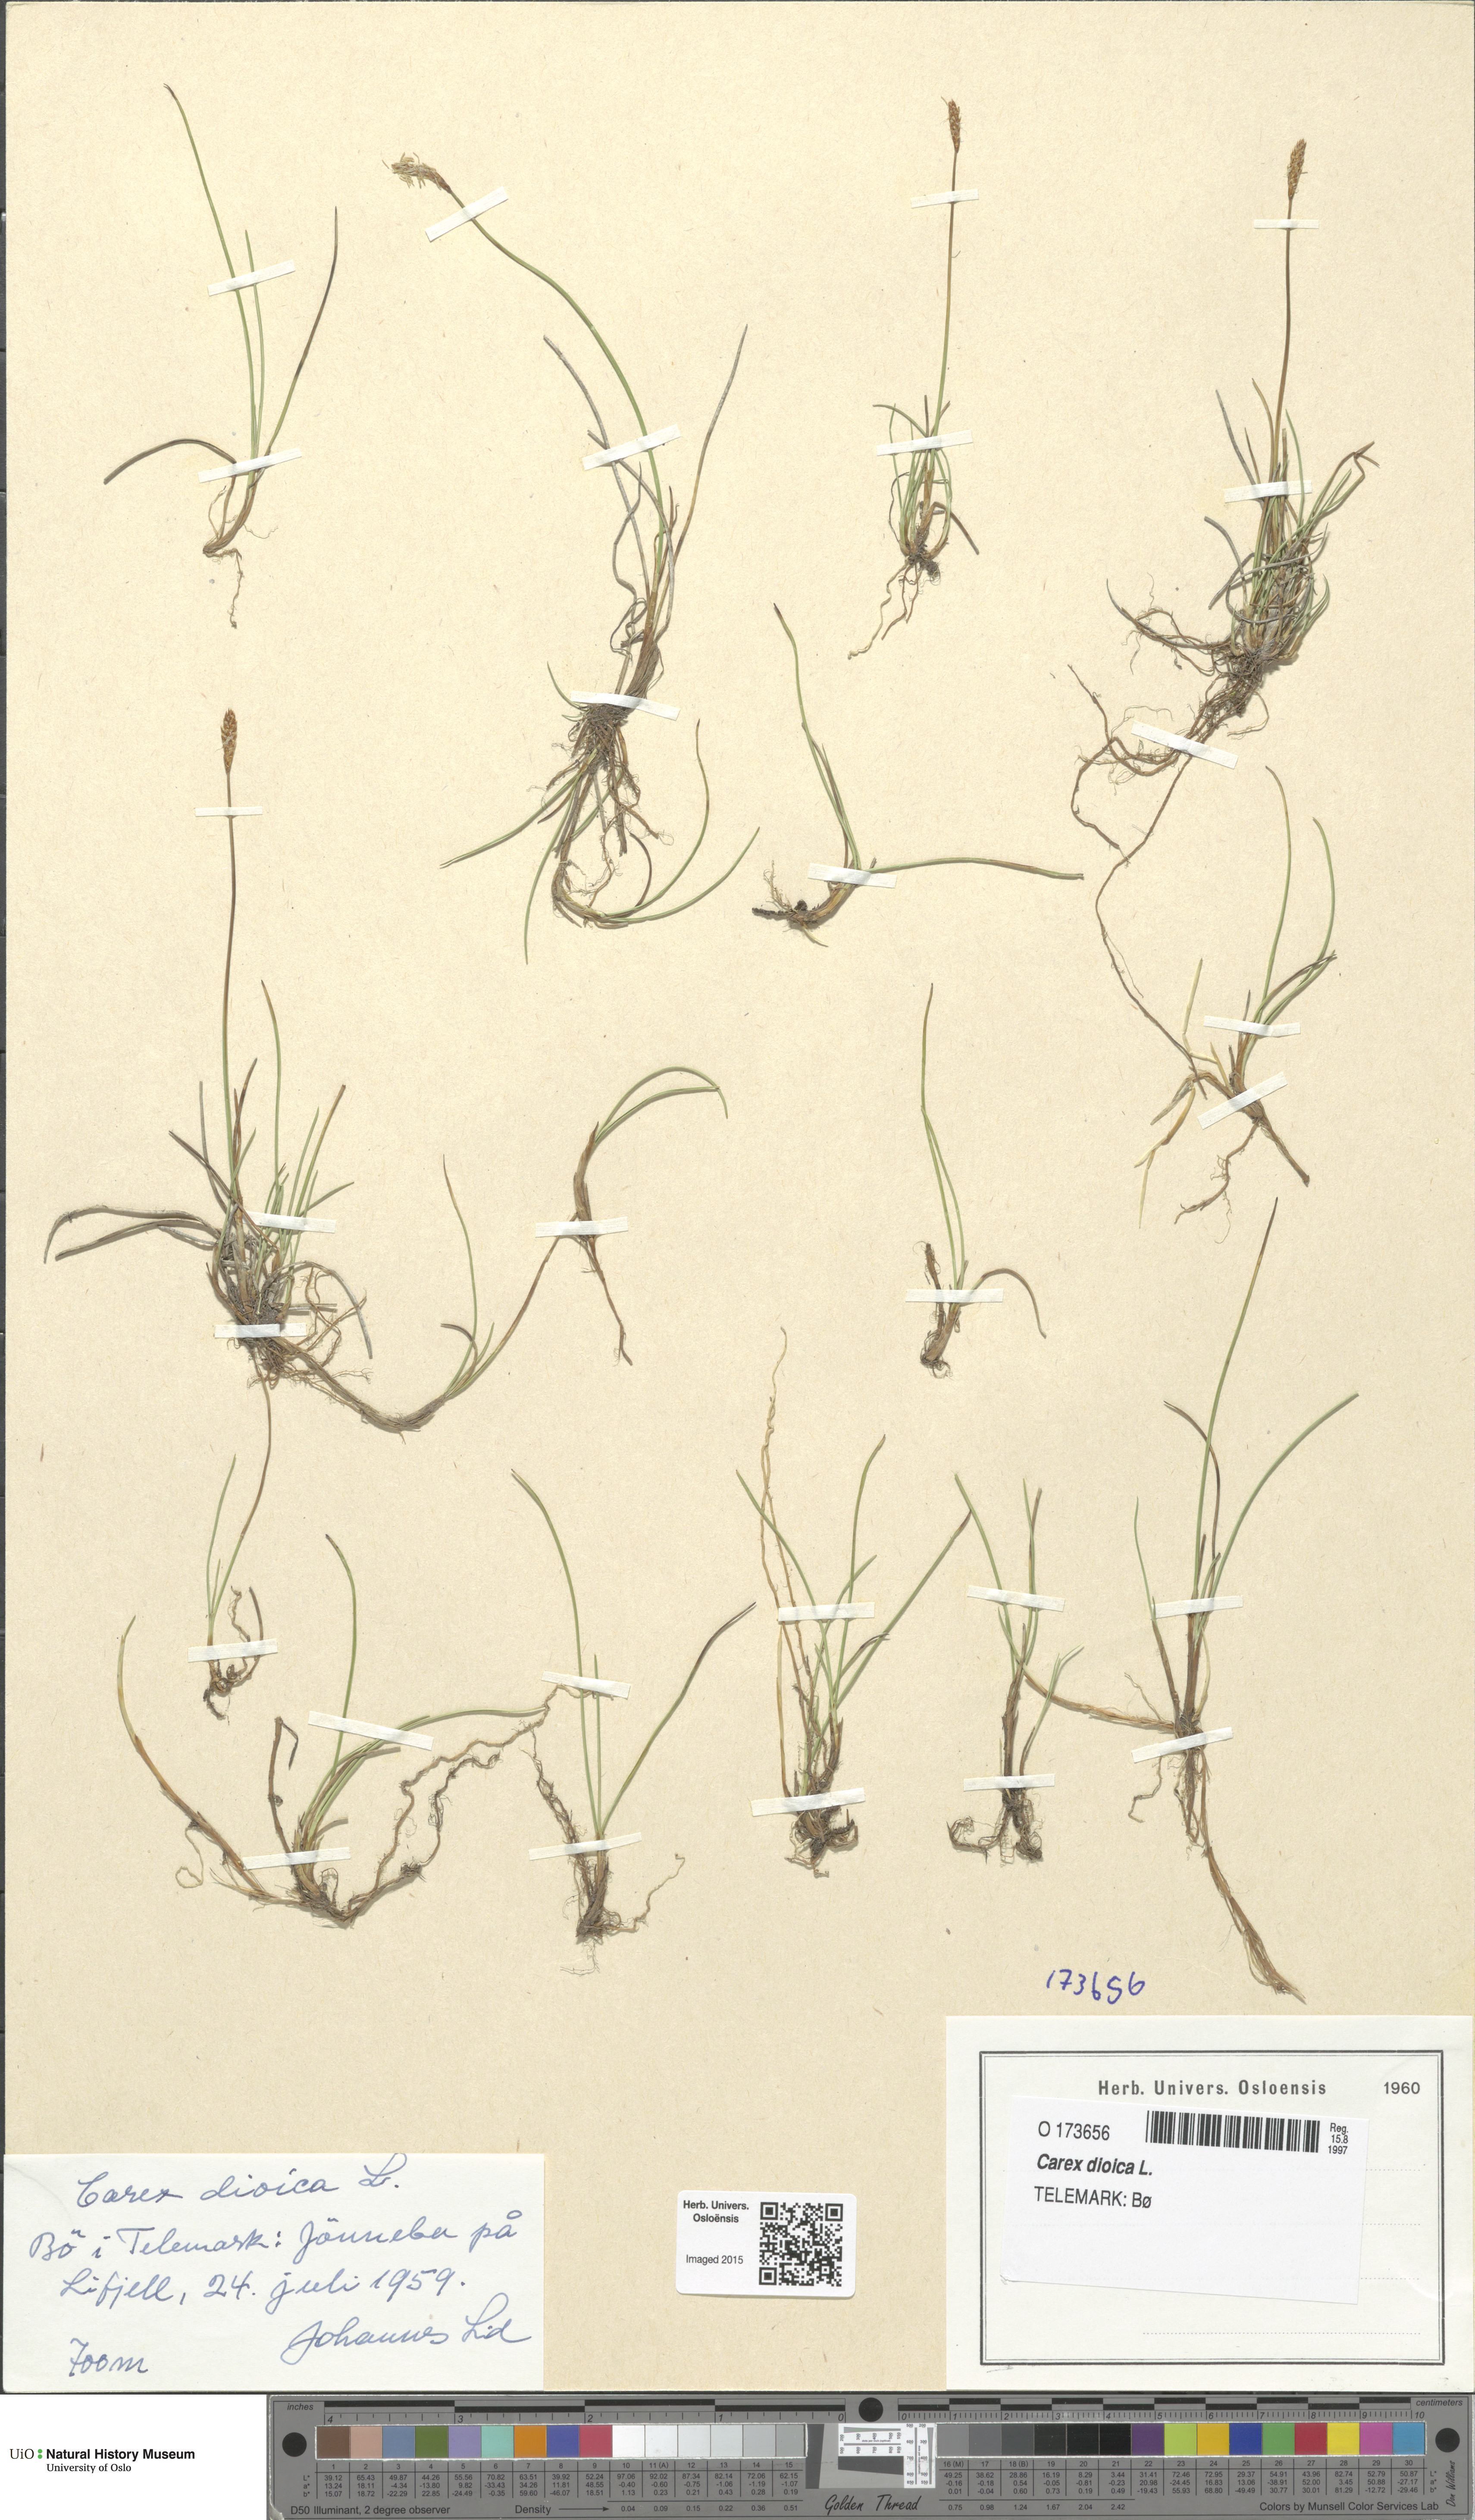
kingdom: Plantae
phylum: Tracheophyta
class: Liliopsida
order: Poales
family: Cyperaceae
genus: Carex
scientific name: Carex dioica
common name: Dioecious sedge
